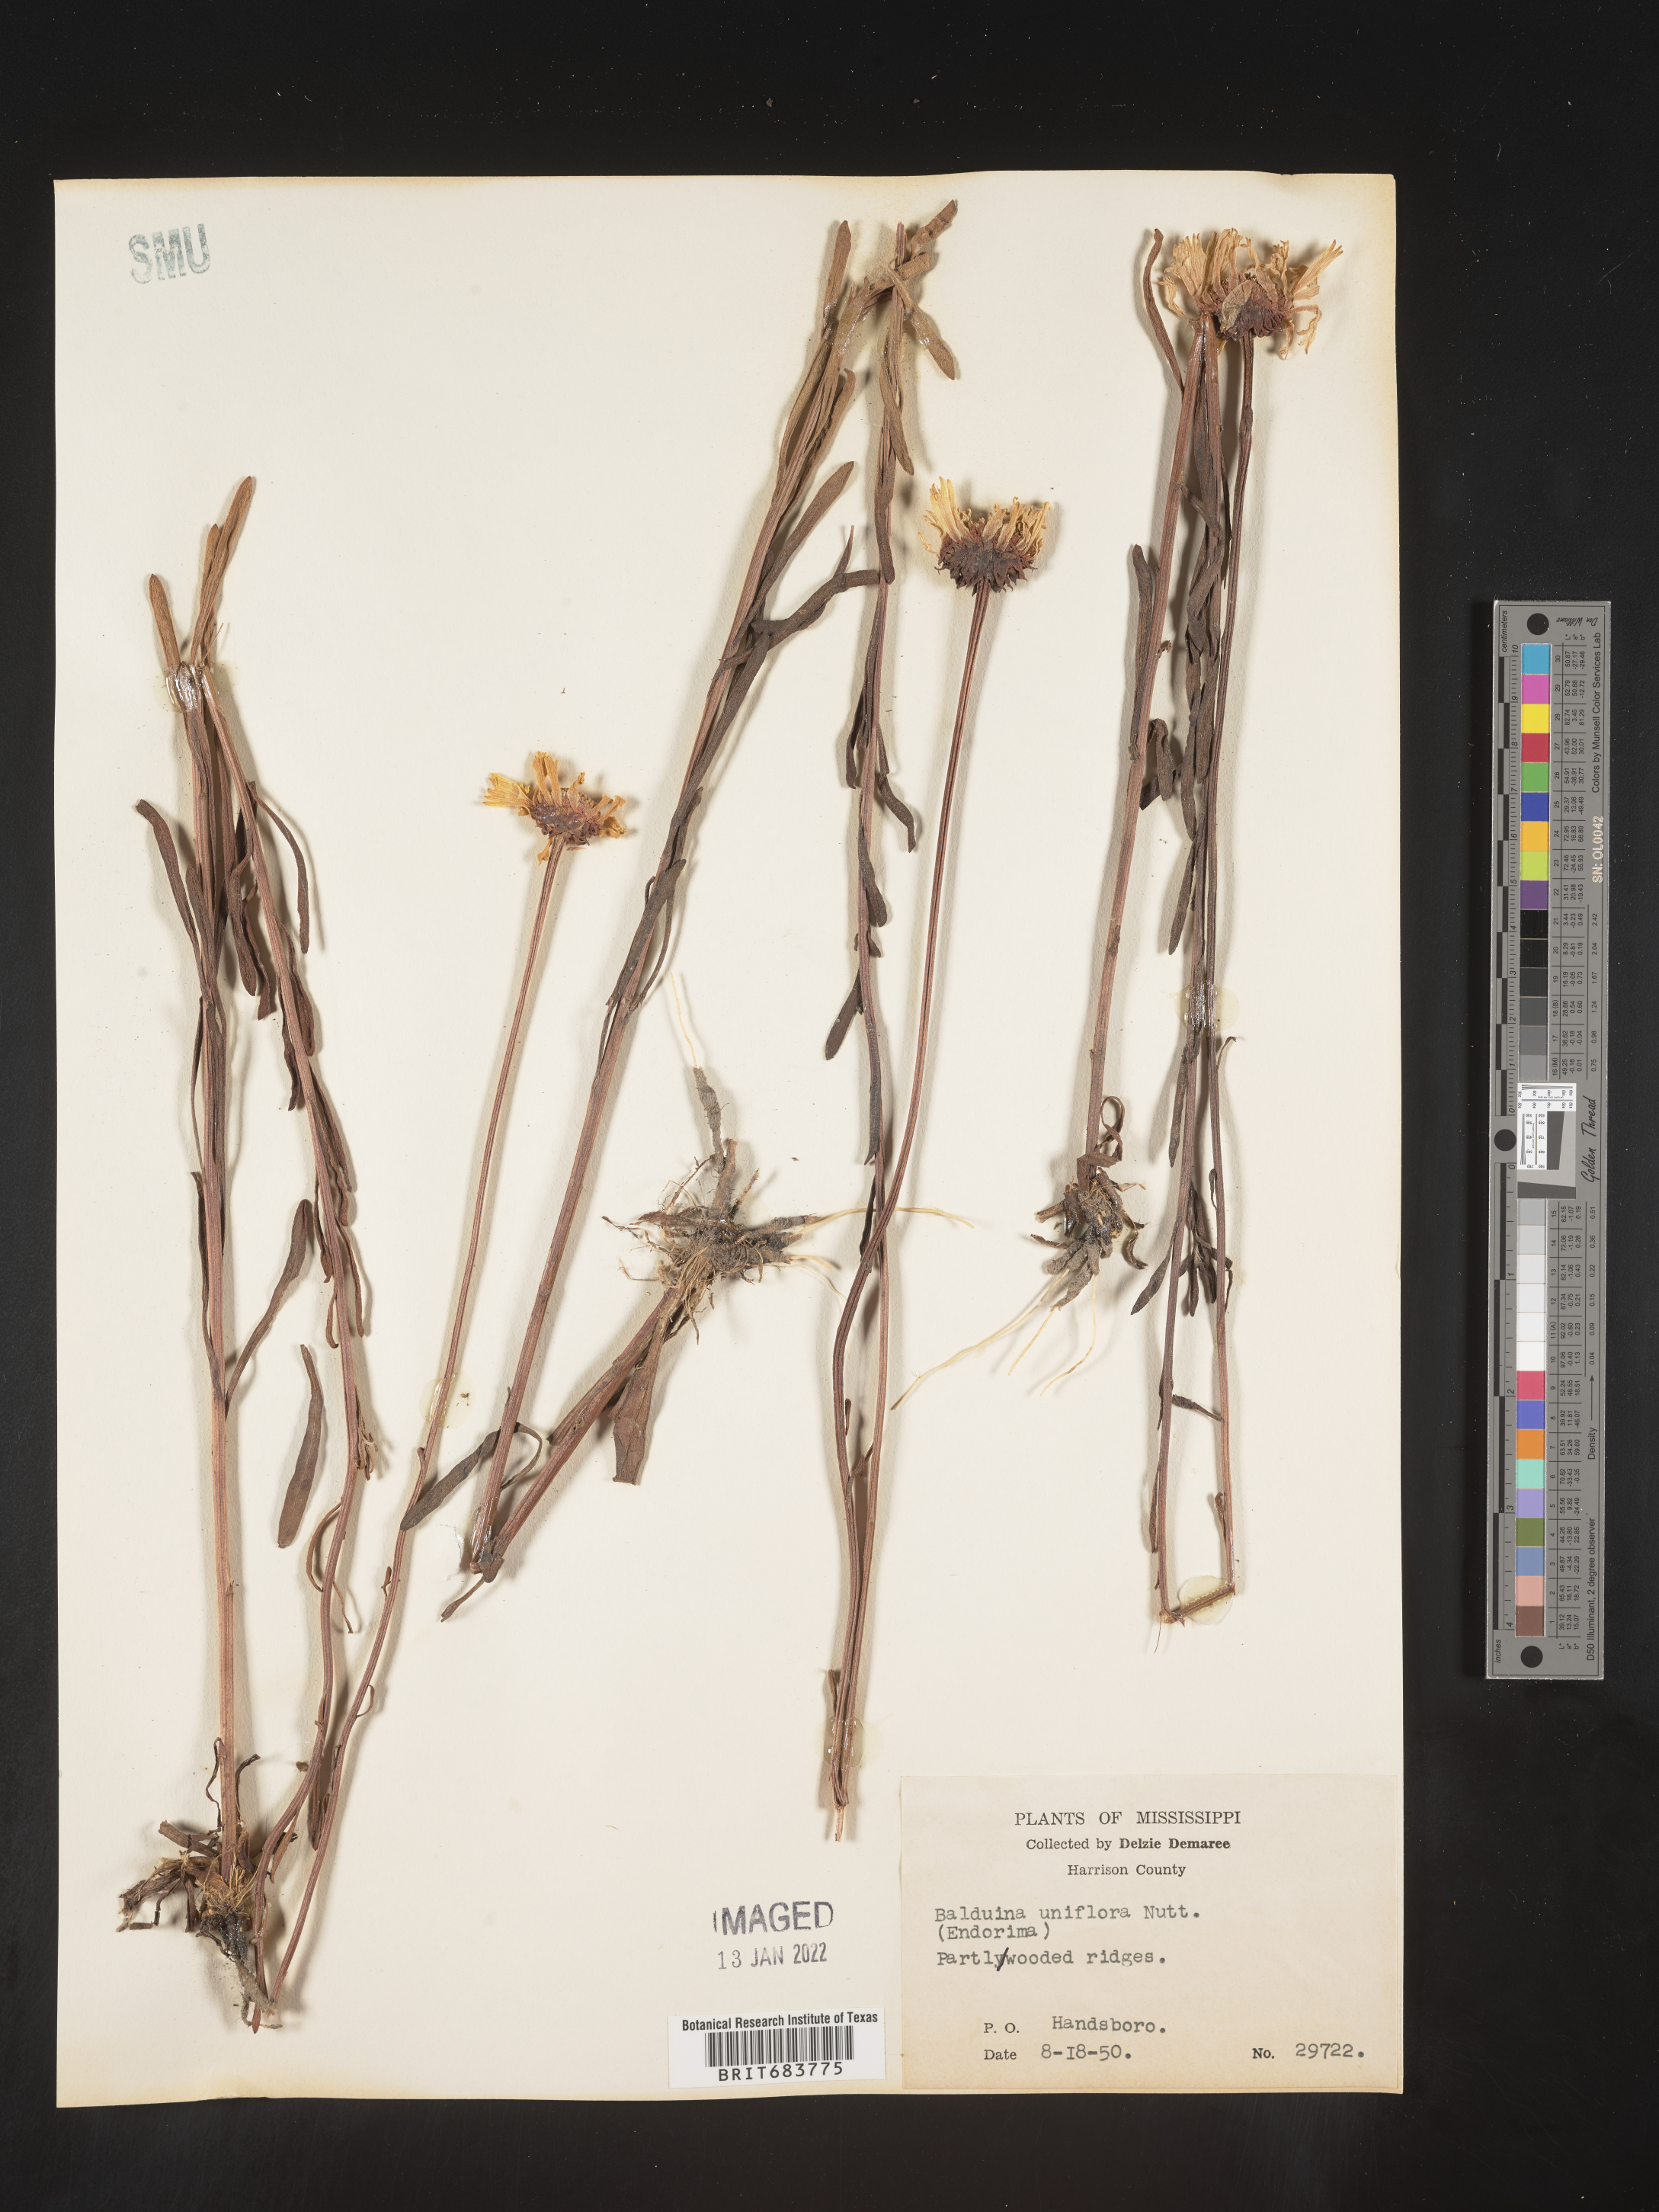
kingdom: Plantae
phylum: Tracheophyta
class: Magnoliopsida
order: Asterales
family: Asteraceae
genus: Balduina
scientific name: Balduina uniflora
